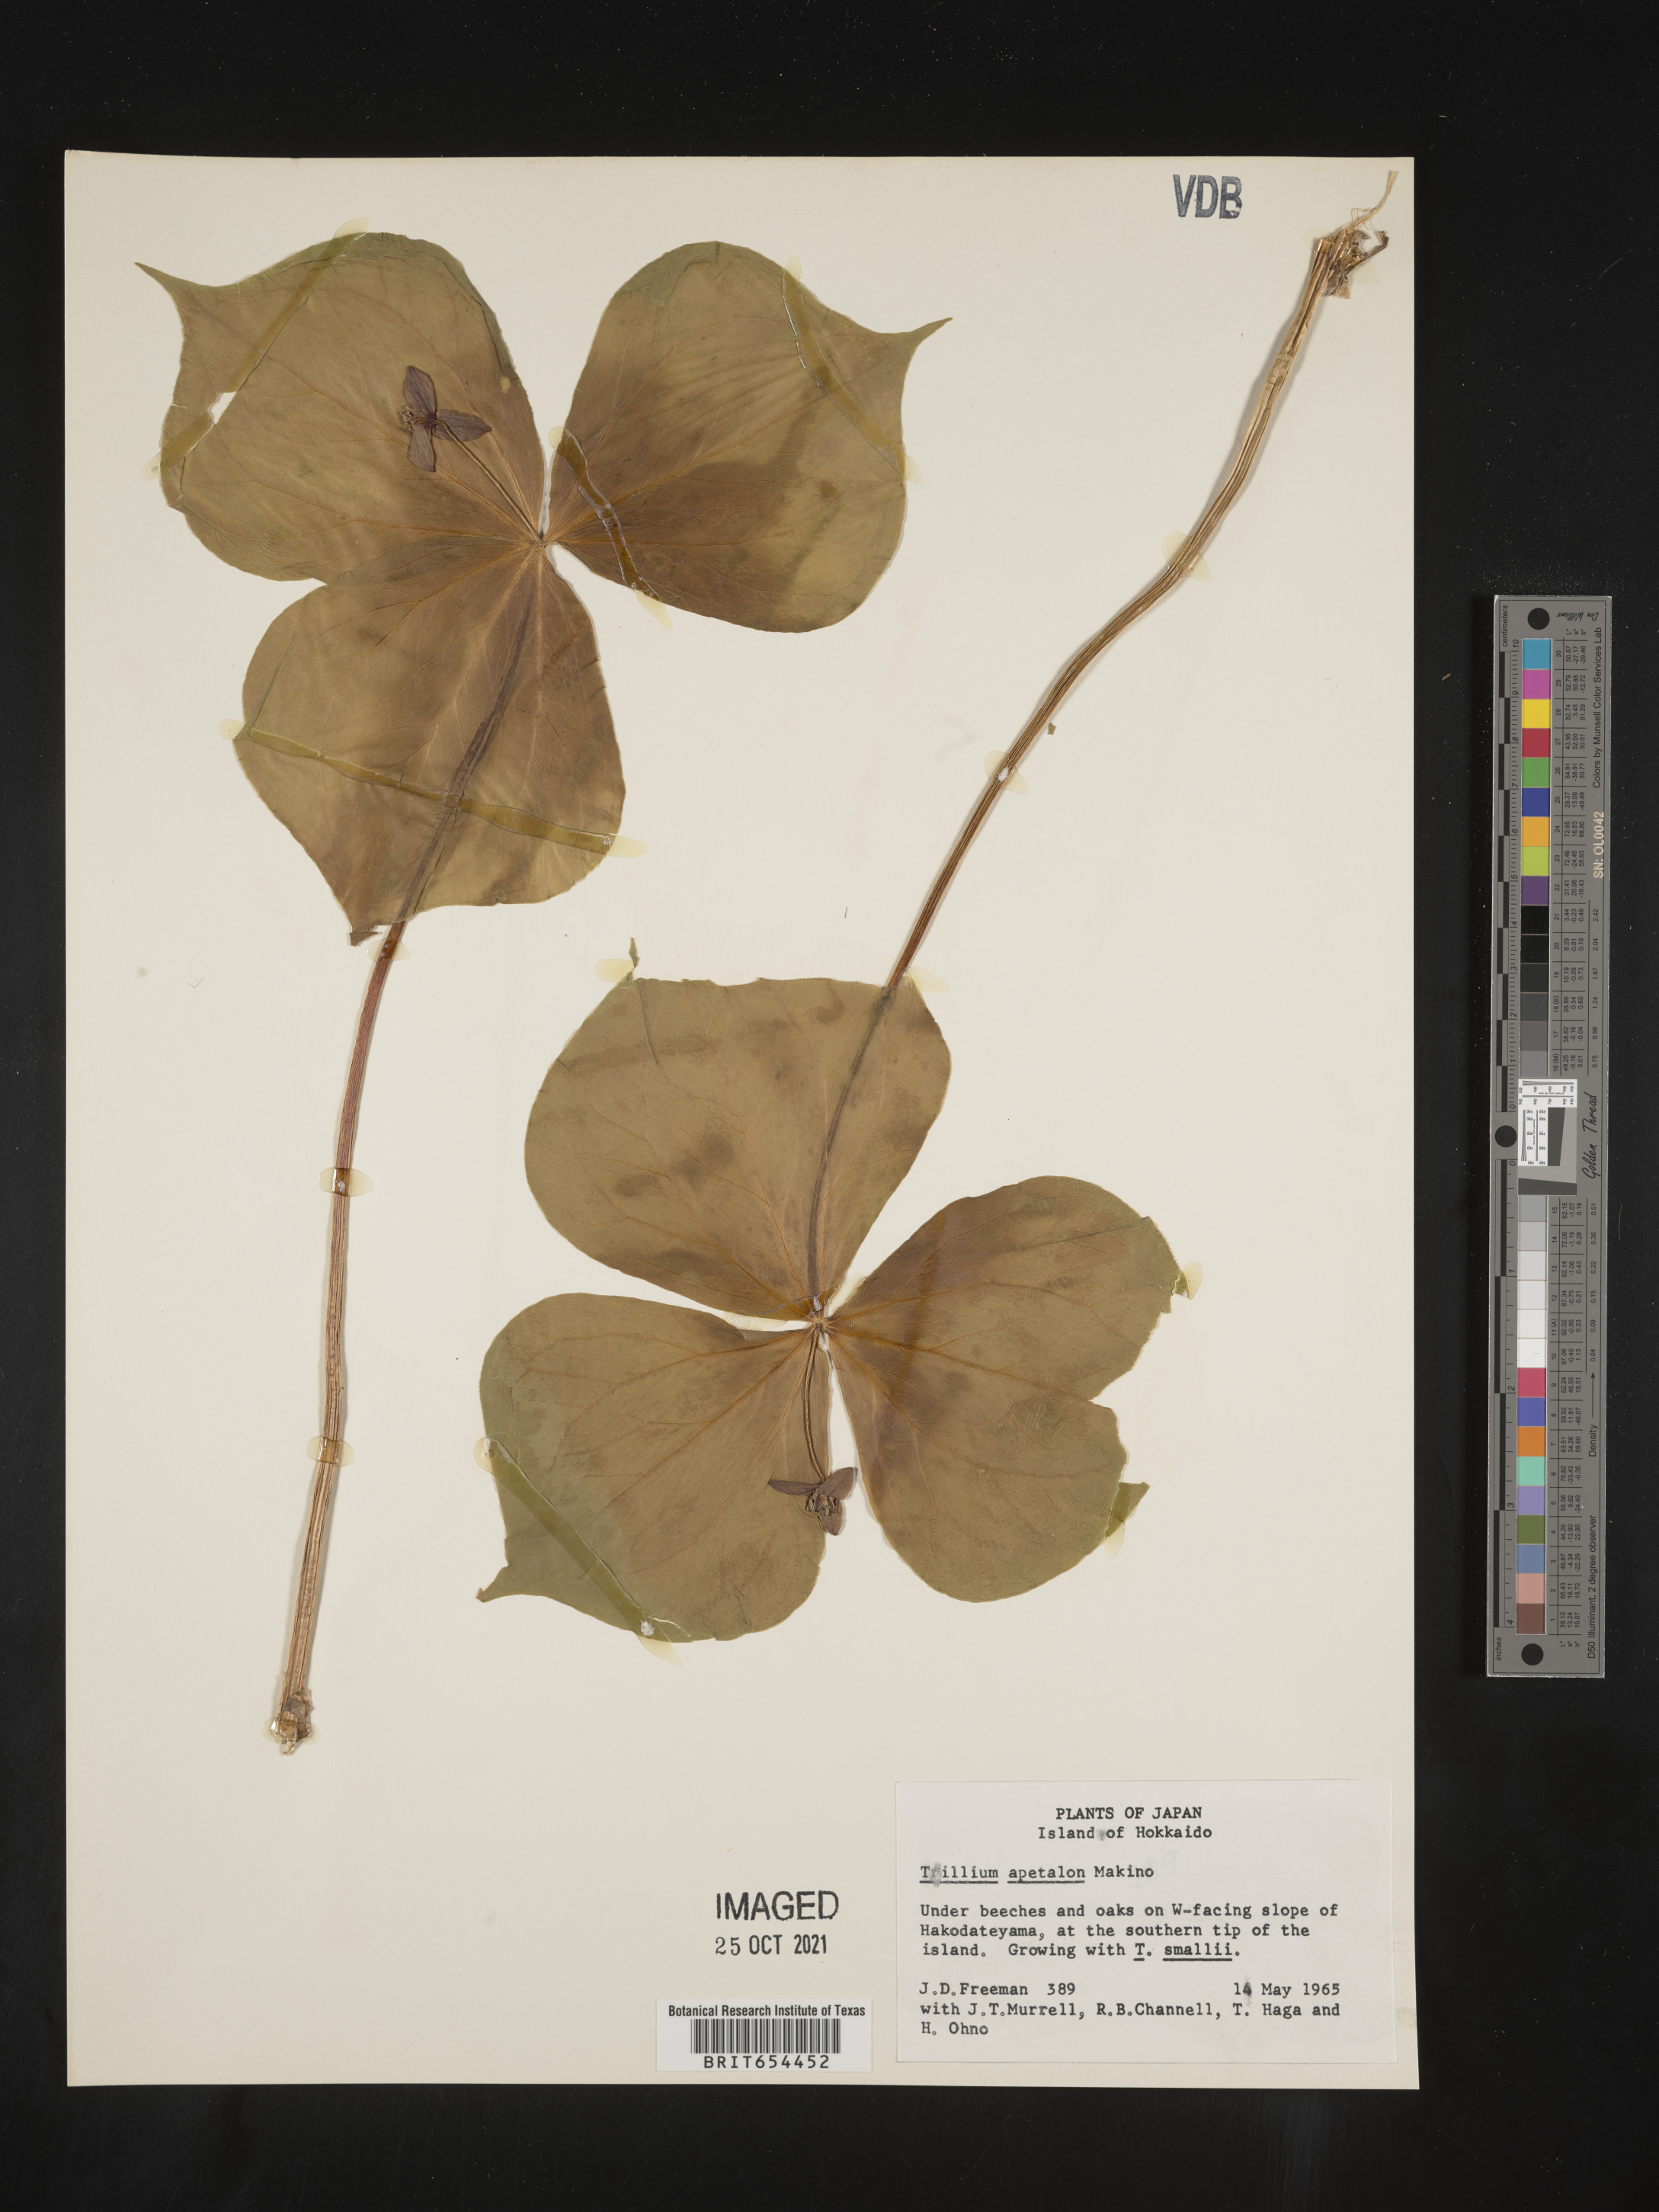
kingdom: Plantae
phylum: Tracheophyta
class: Liliopsida
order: Liliales
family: Melanthiaceae
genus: Trillium
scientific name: Trillium
